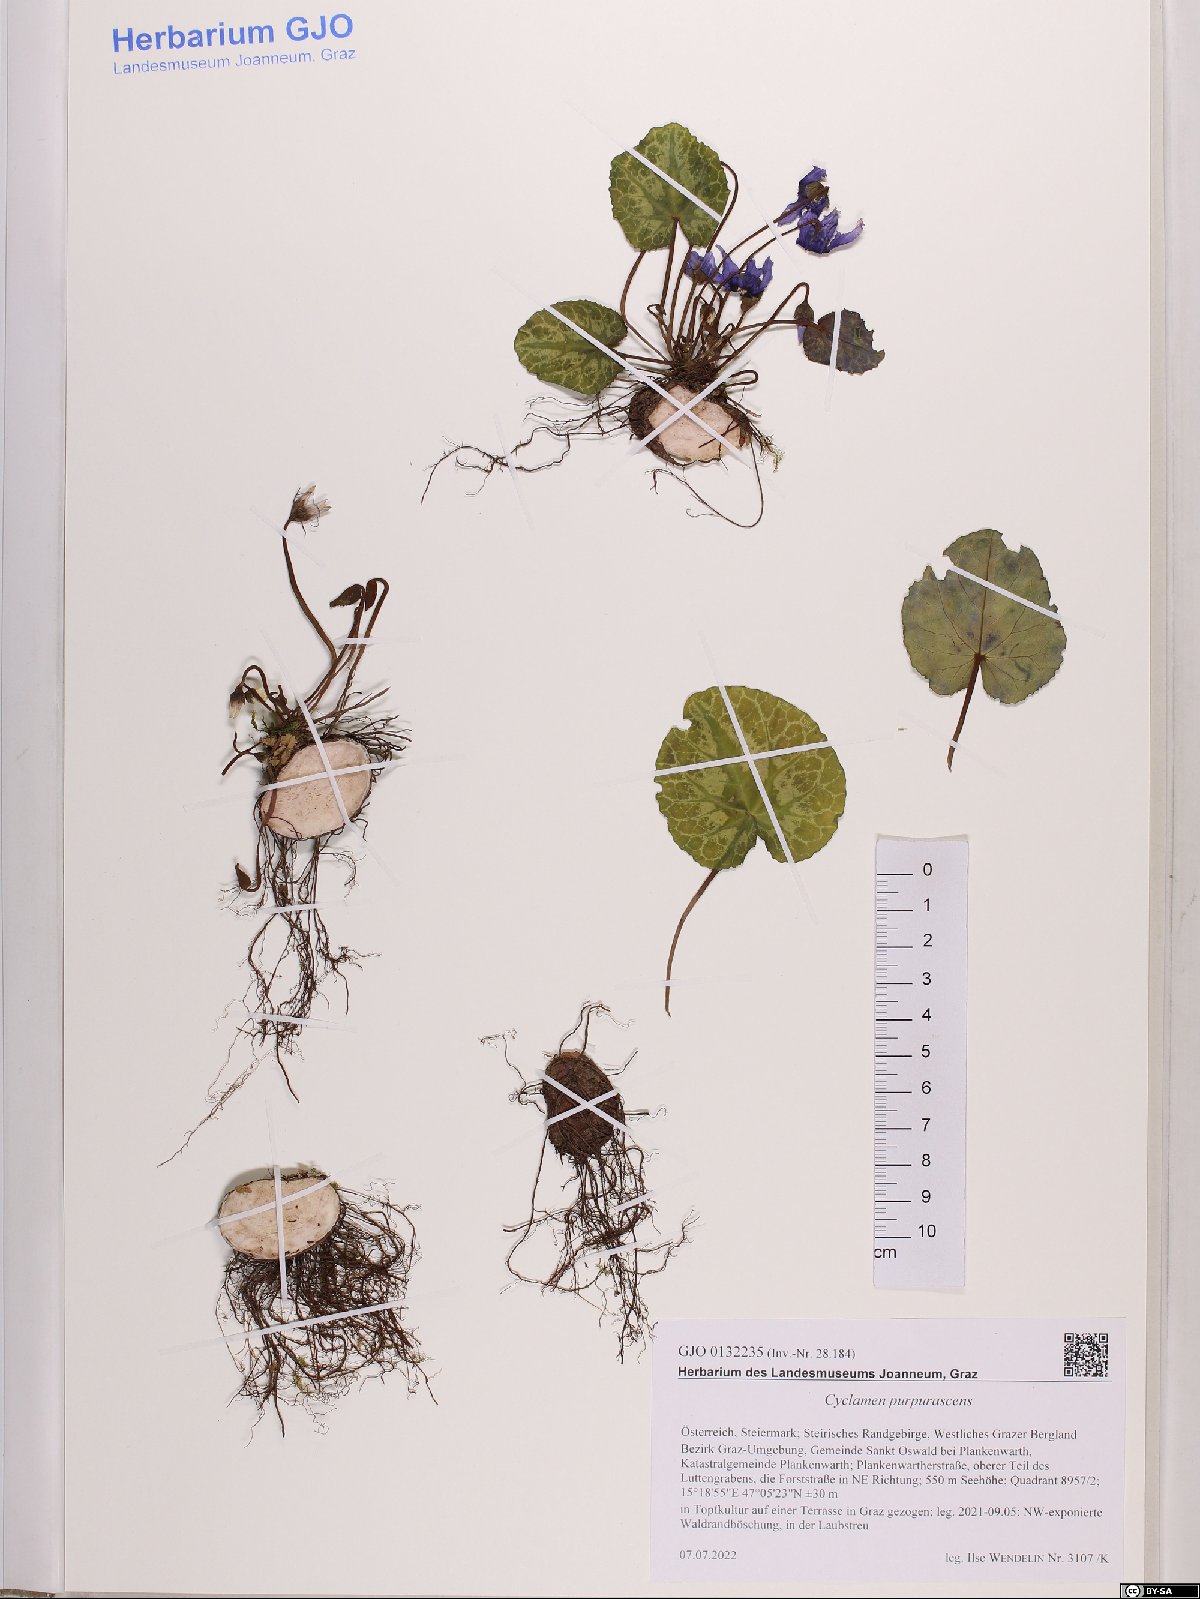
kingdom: Plantae
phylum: Tracheophyta
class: Magnoliopsida
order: Ericales
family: Primulaceae
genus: Cyclamen
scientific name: Cyclamen purpurascens
